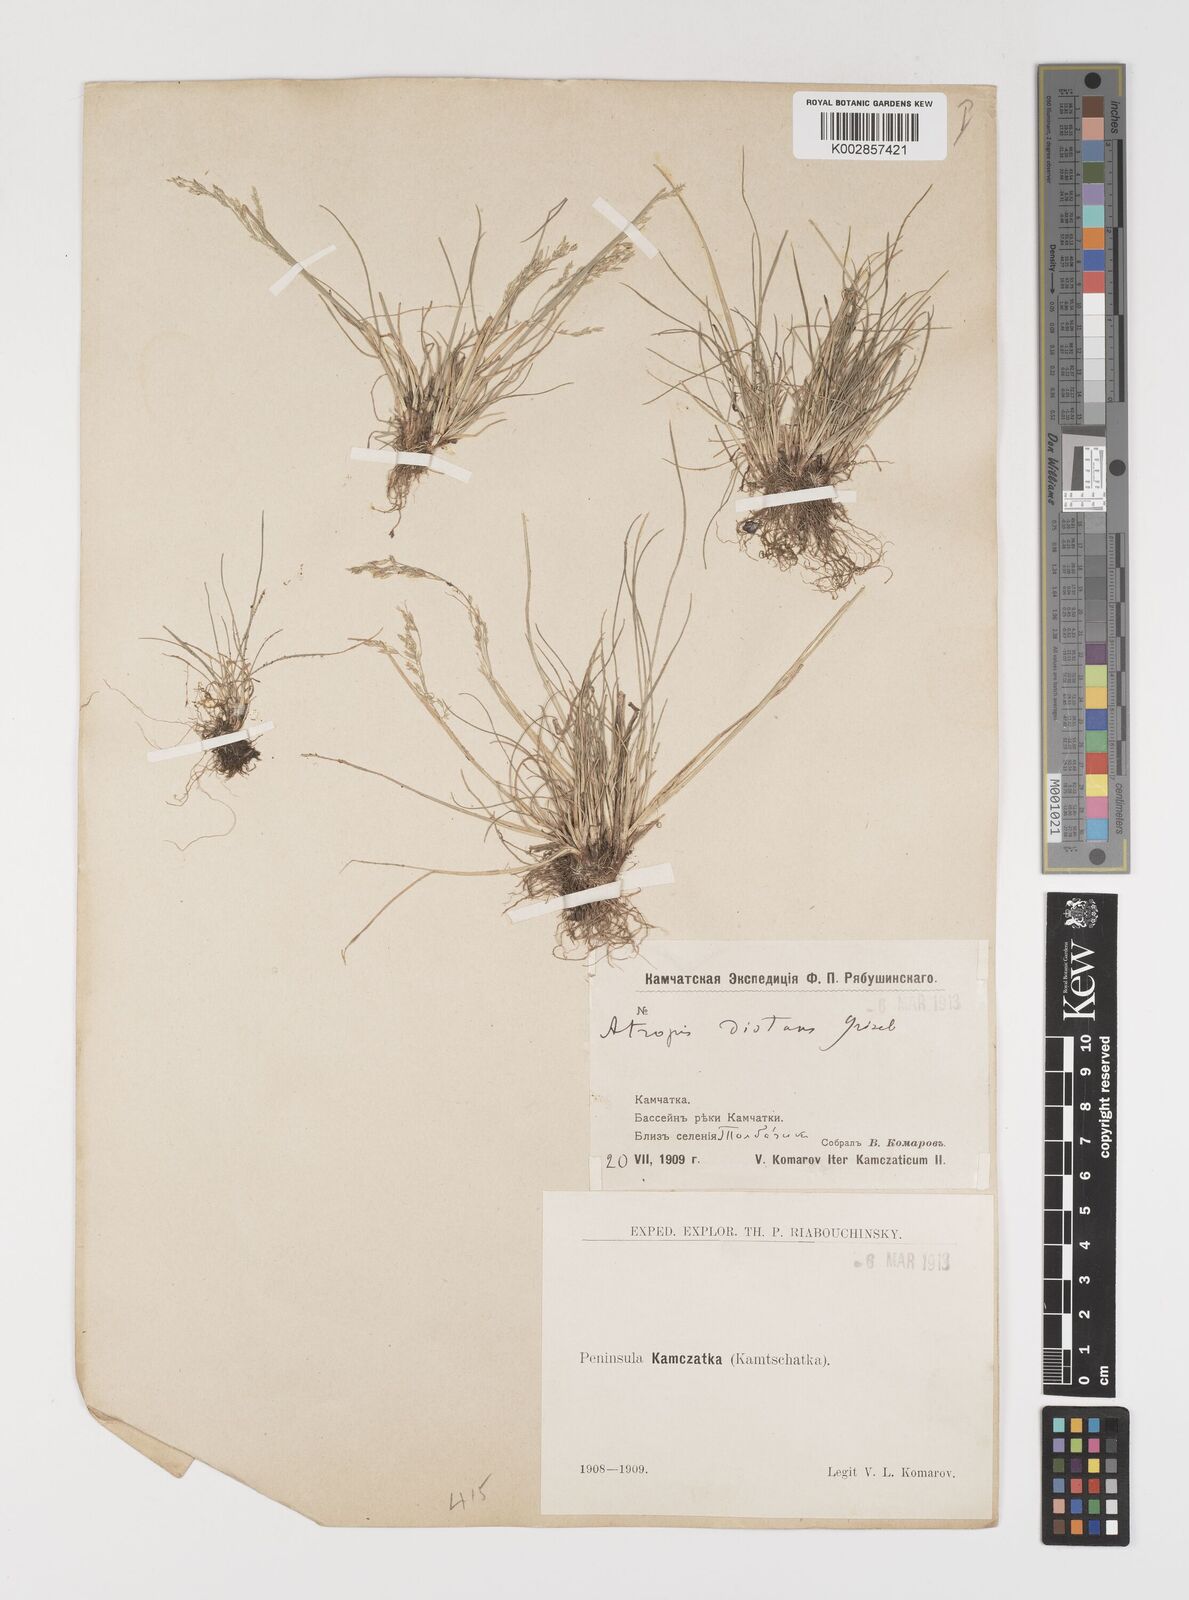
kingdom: Plantae
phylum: Tracheophyta
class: Liliopsida
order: Poales
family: Poaceae
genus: Puccinellia
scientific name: Puccinellia distans
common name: Weeping alkaligrass
